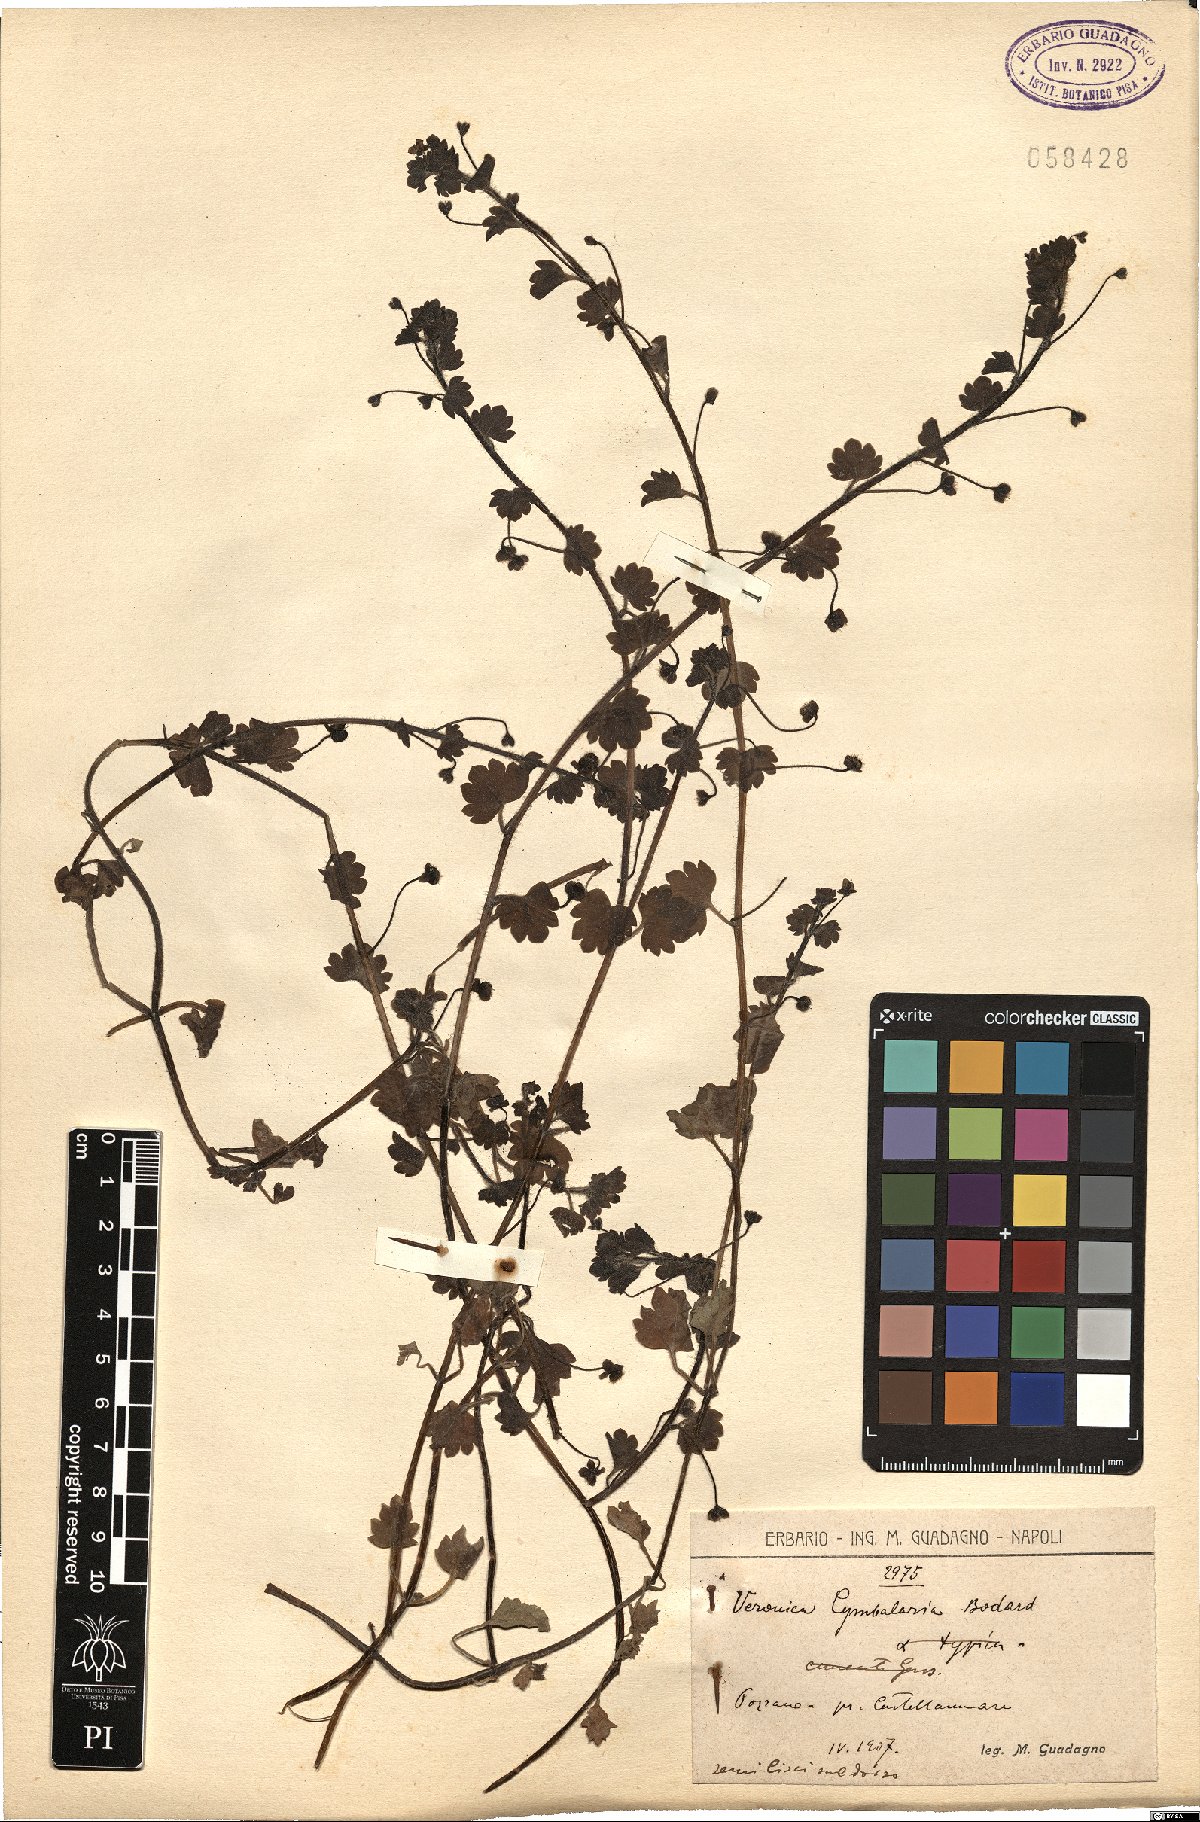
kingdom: Plantae
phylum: Tracheophyta
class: Magnoliopsida
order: Lamiales
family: Plantaginaceae
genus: Veronica
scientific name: Veronica cymbalaria
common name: Pale speedwell
